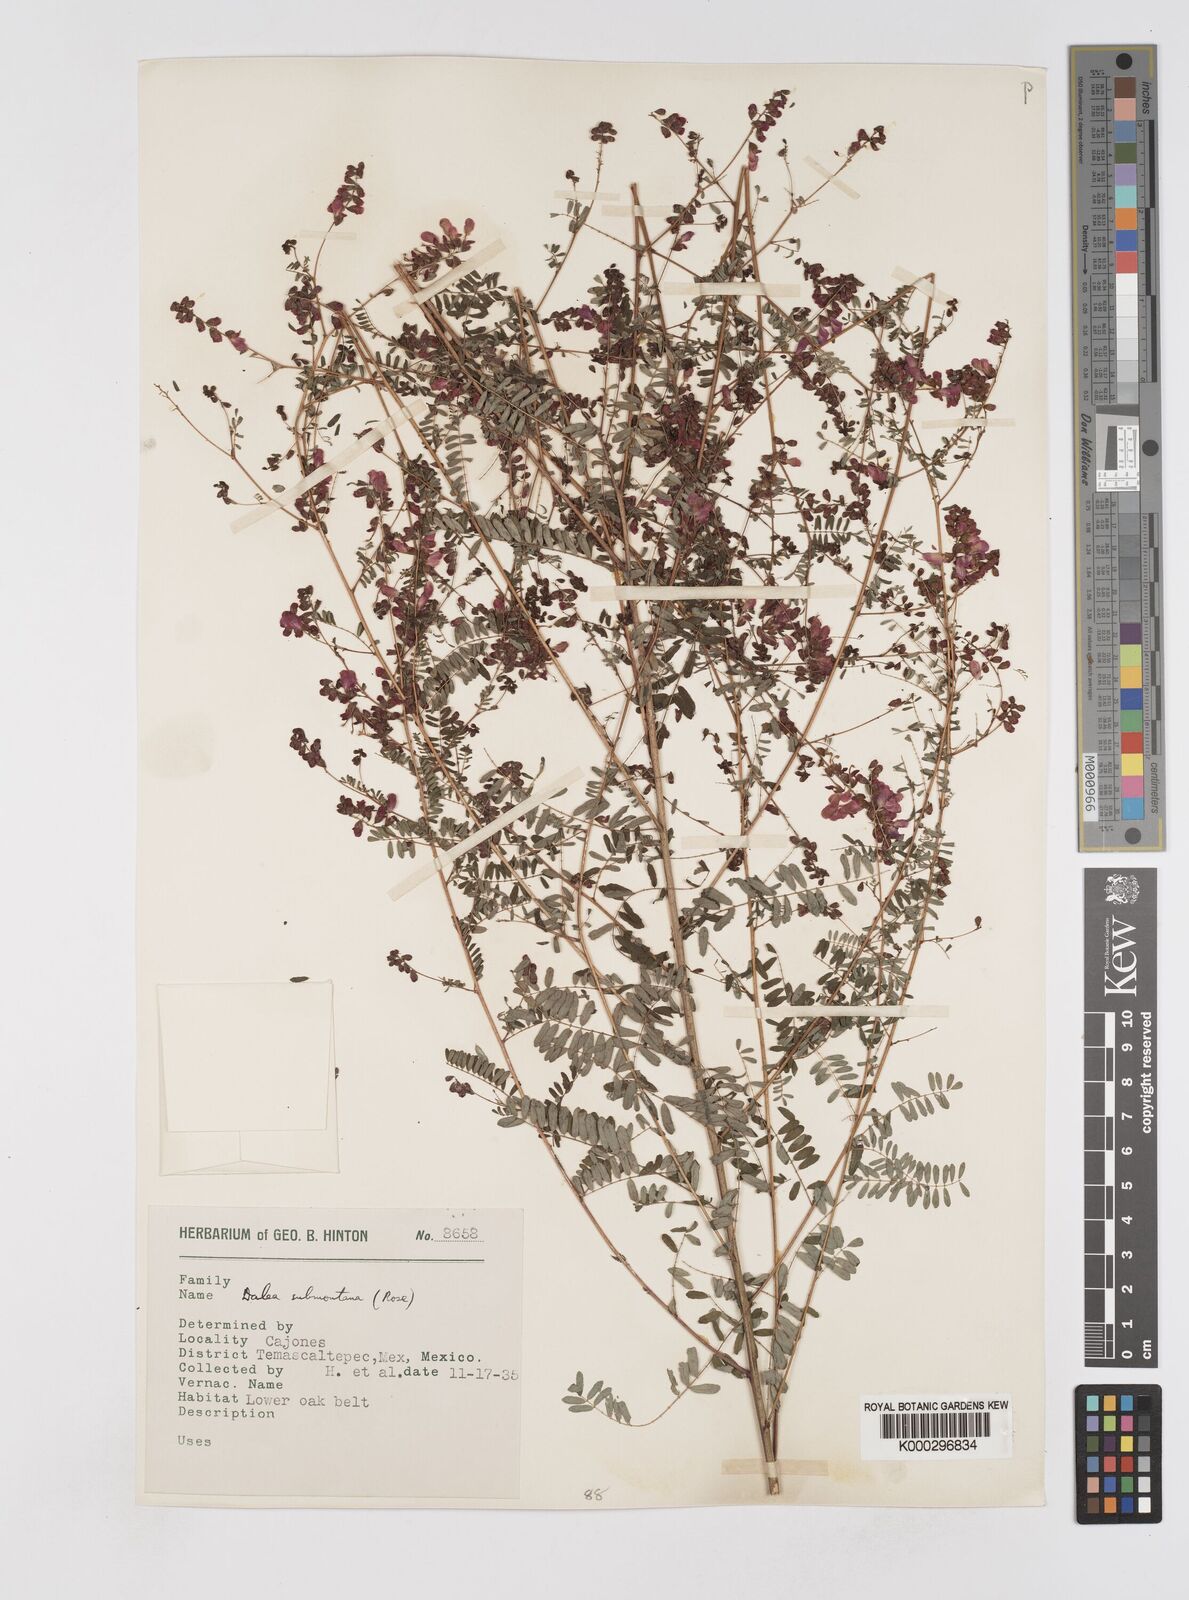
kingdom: Plantae
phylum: Tracheophyta
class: Magnoliopsida
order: Fabales
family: Fabaceae
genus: Marina
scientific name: Marina nutans
